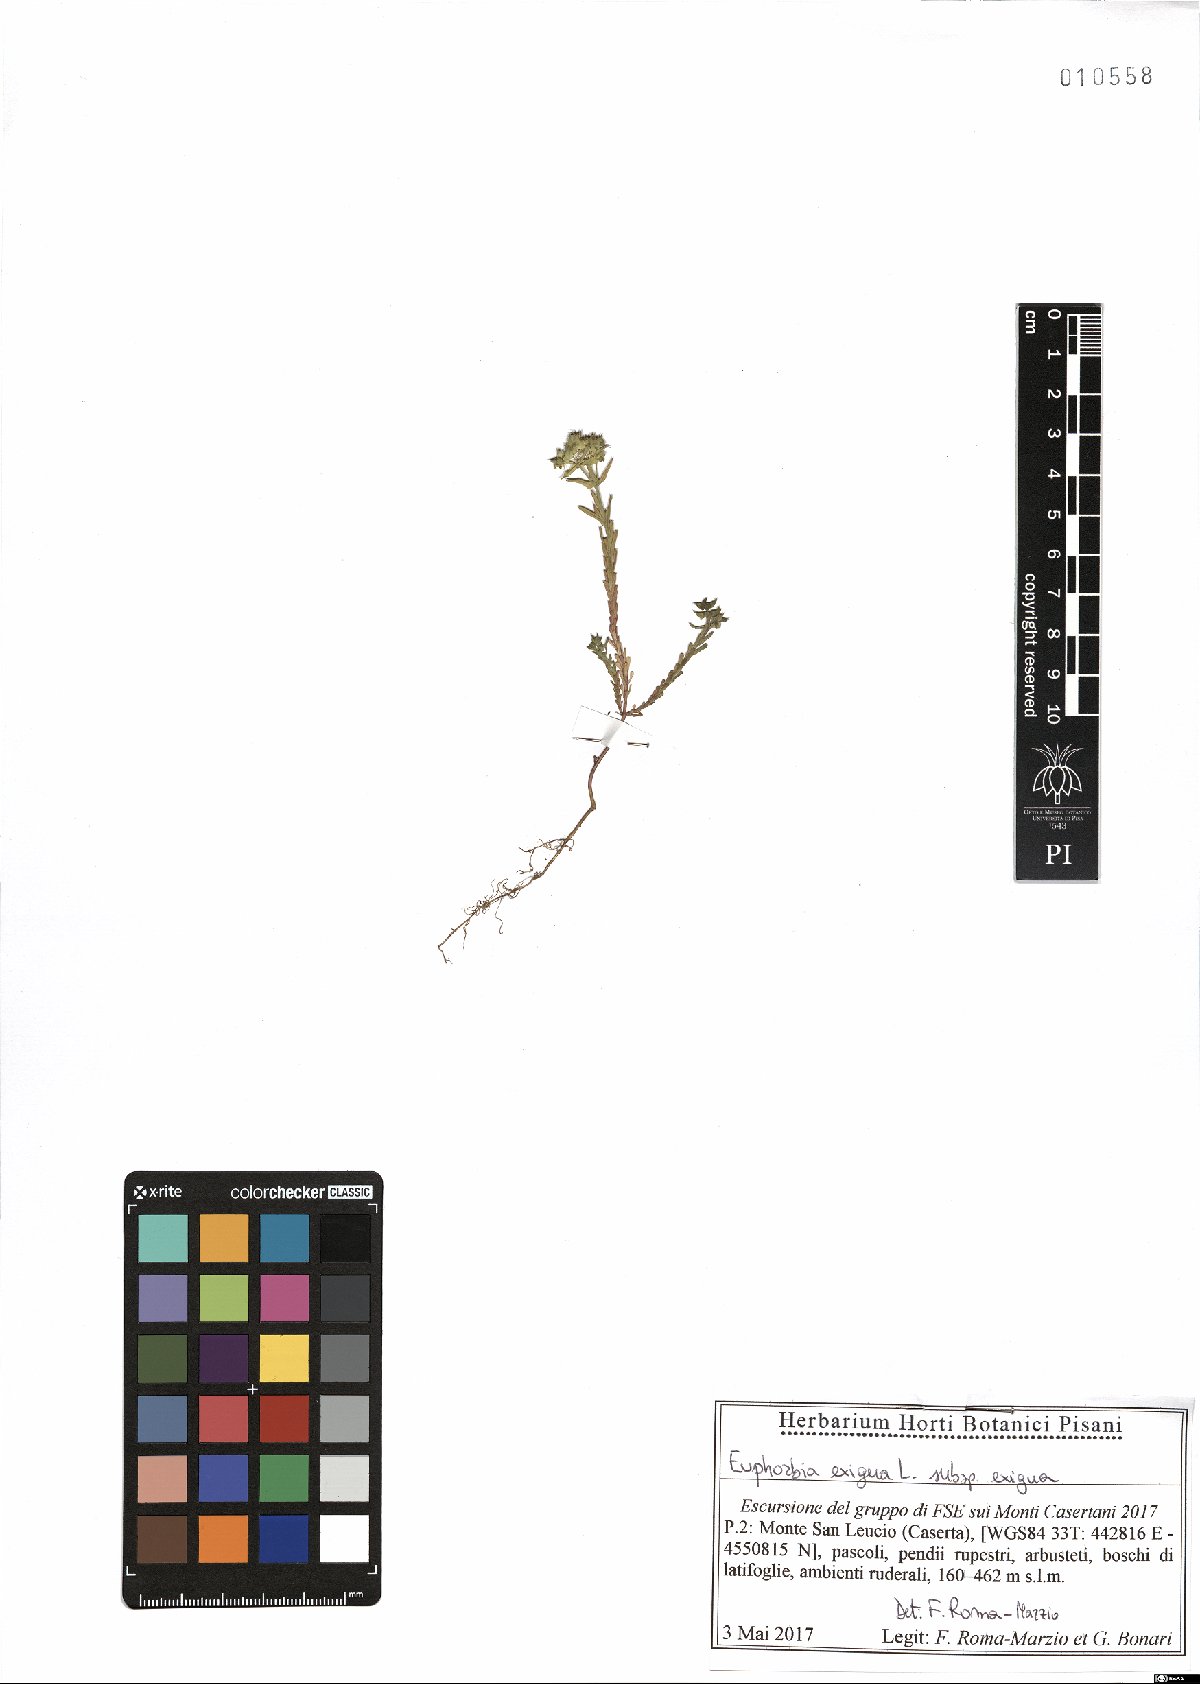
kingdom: Plantae
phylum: Tracheophyta
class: Magnoliopsida
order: Malpighiales
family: Euphorbiaceae
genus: Euphorbia
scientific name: Euphorbia exigua
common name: Dwarf spurge
